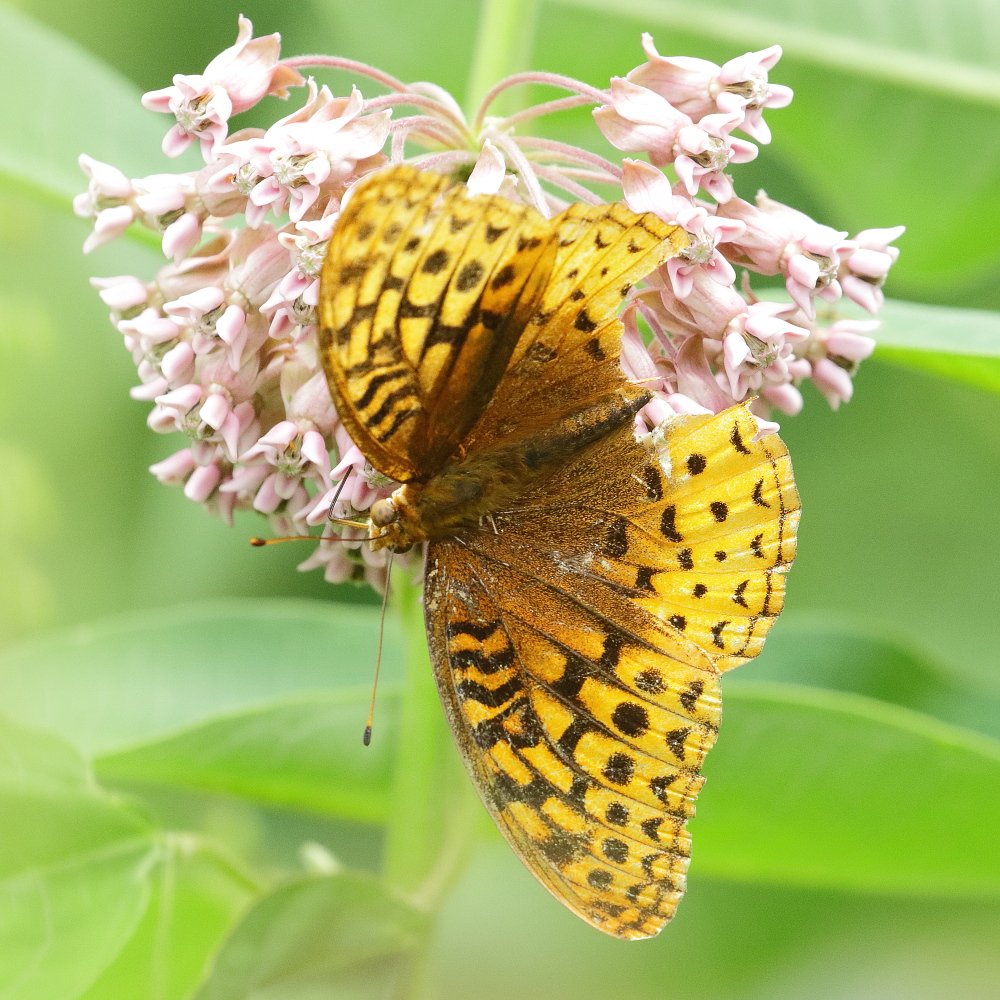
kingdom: Animalia
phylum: Arthropoda
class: Insecta
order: Lepidoptera
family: Nymphalidae
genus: Speyeria
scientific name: Speyeria cybele
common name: Great Spangled Fritillary
